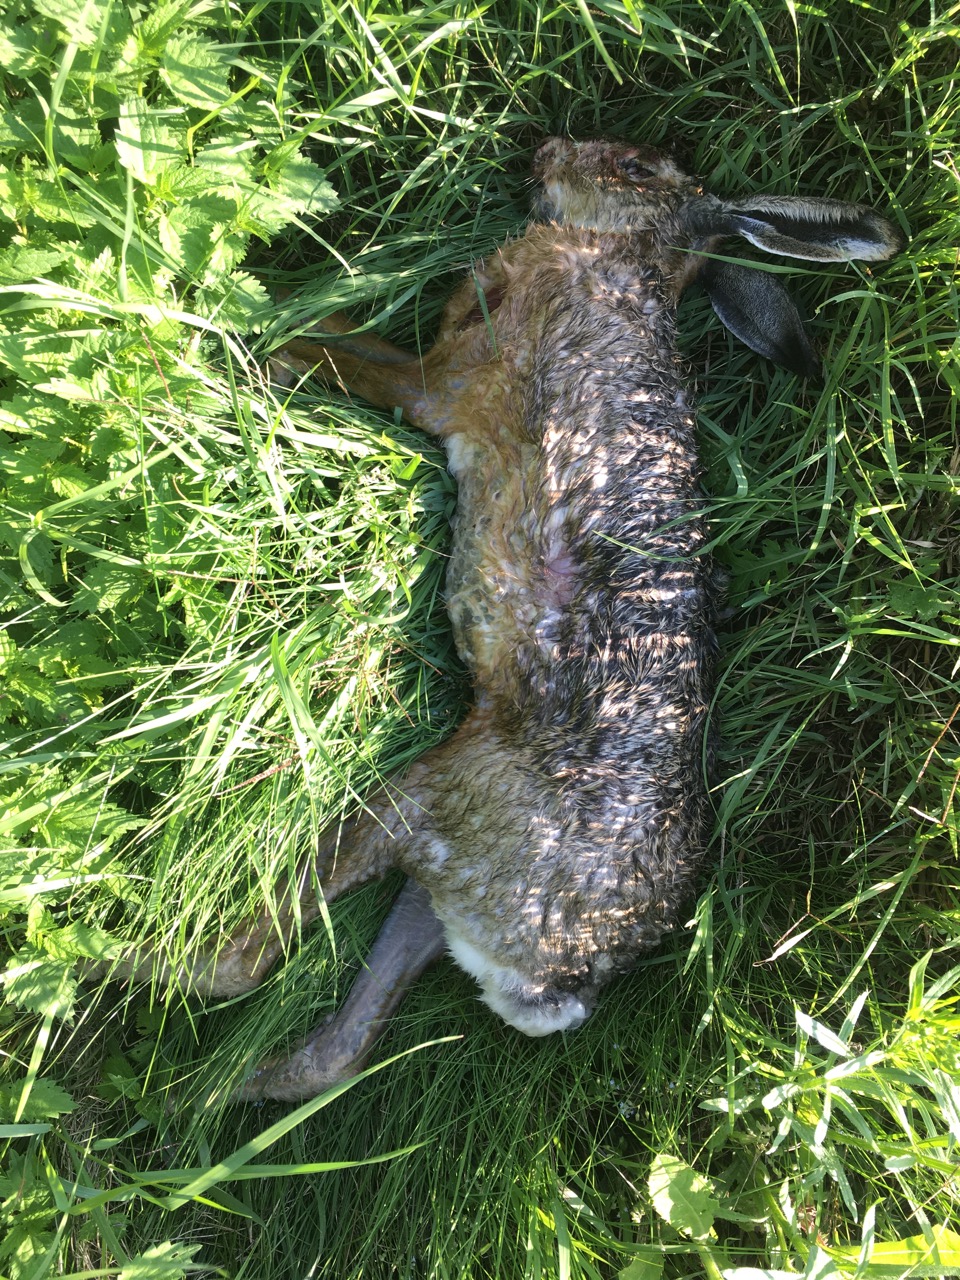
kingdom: Animalia
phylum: Chordata
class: Mammalia
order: Lagomorpha
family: Leporidae
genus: Lepus
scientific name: Lepus europaeus
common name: European hare
